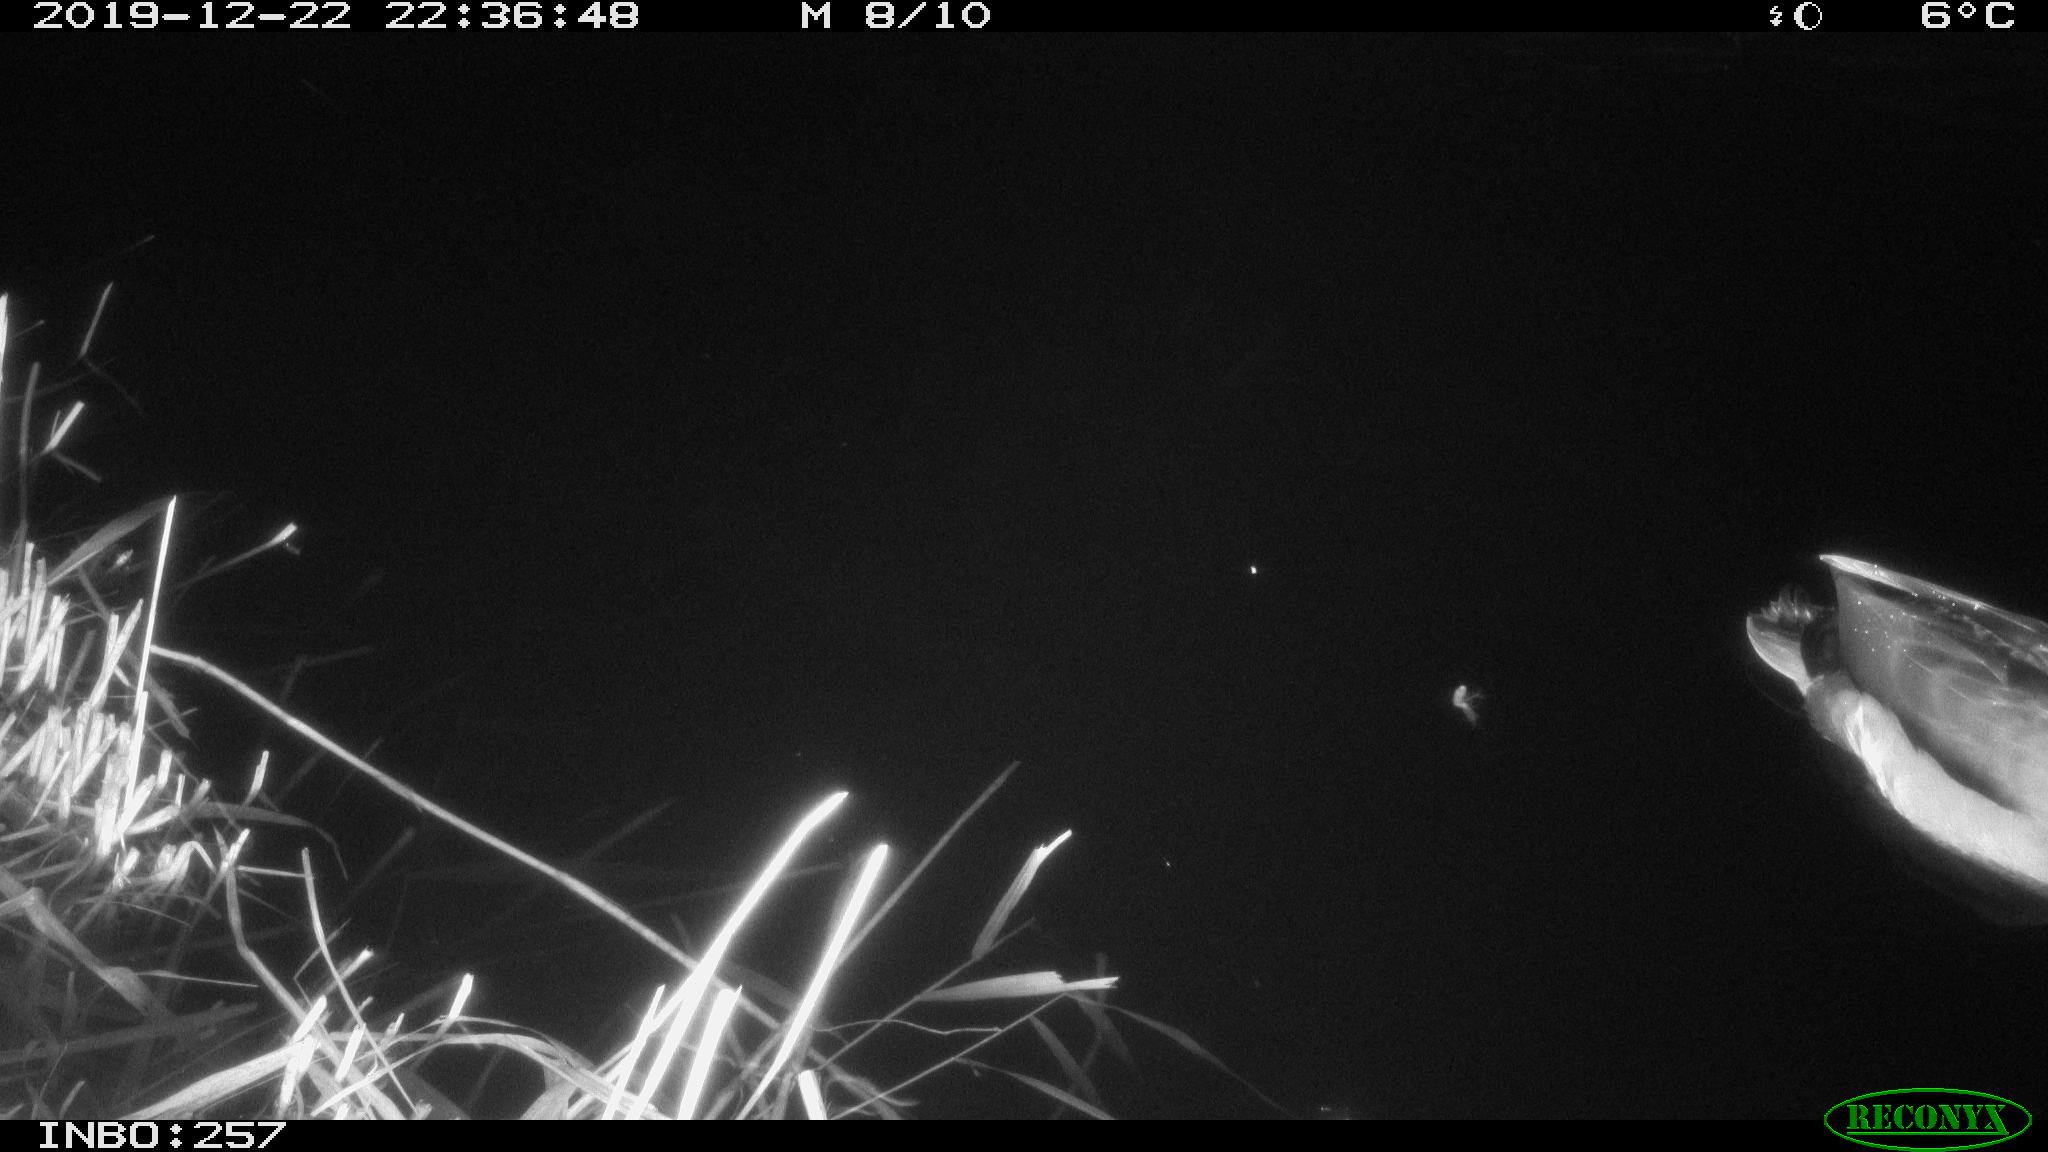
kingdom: Animalia
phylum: Chordata
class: Aves
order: Anseriformes
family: Anatidae
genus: Anas
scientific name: Anas platyrhynchos
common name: Mallard
